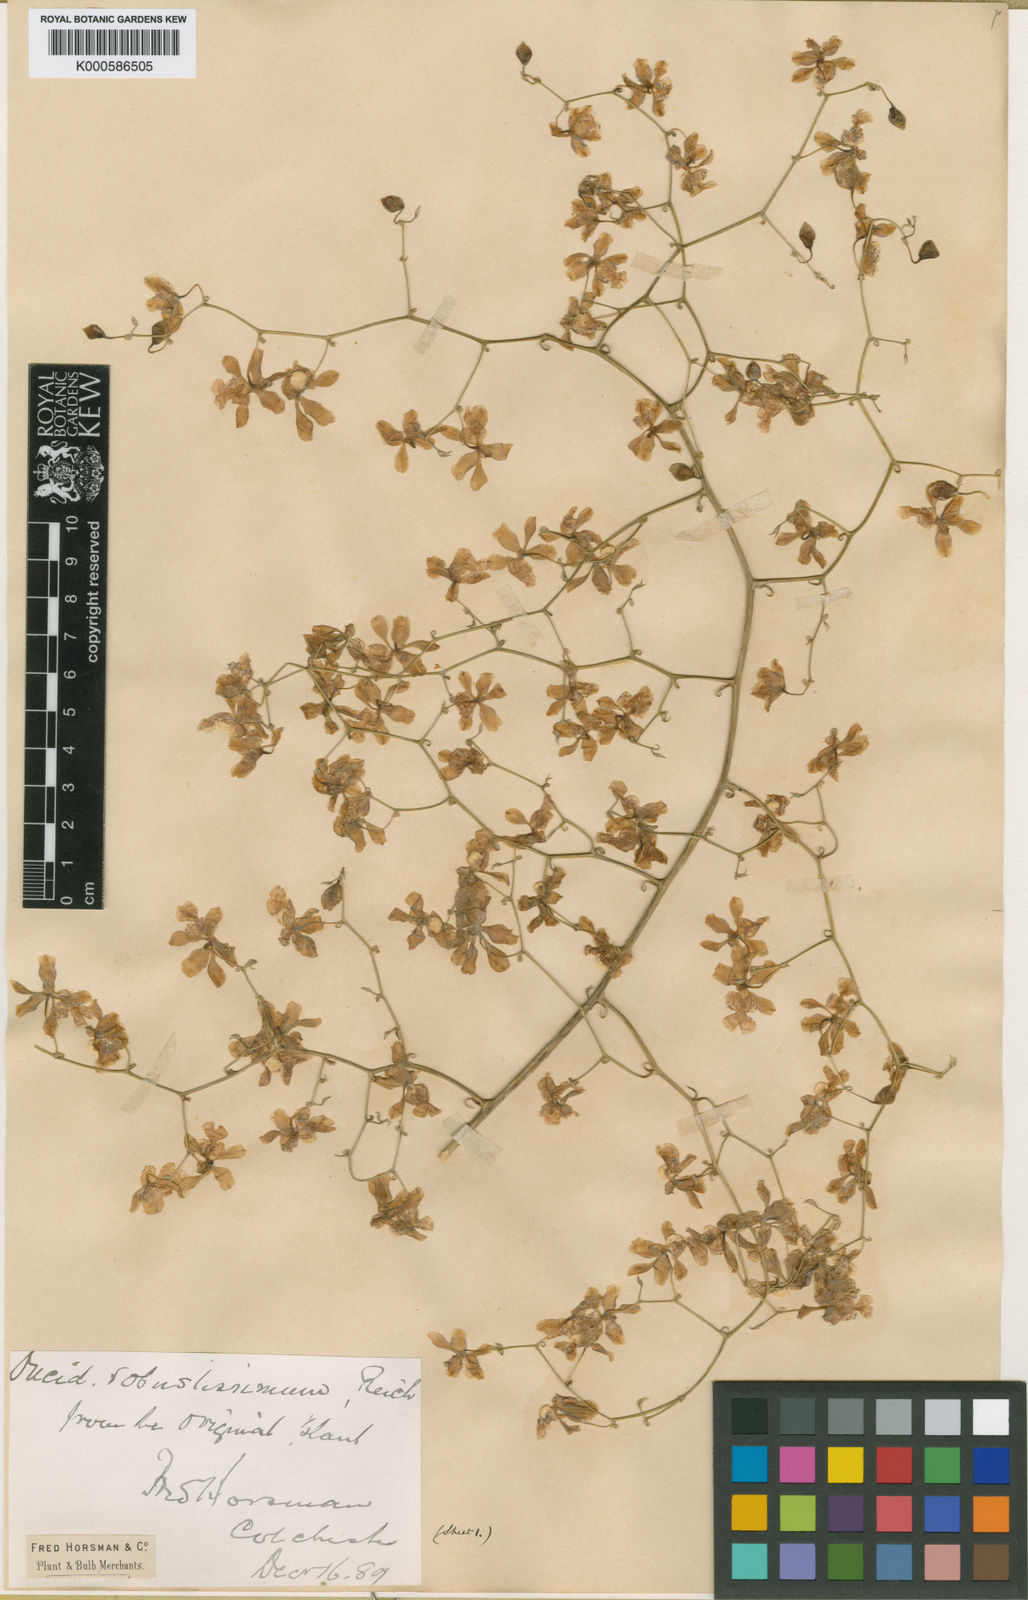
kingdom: Plantae
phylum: Tracheophyta
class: Liliopsida
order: Asparagales
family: Orchidaceae
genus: Grandiphyllum
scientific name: Grandiphyllum divaricatum
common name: Mule-ear orchid
